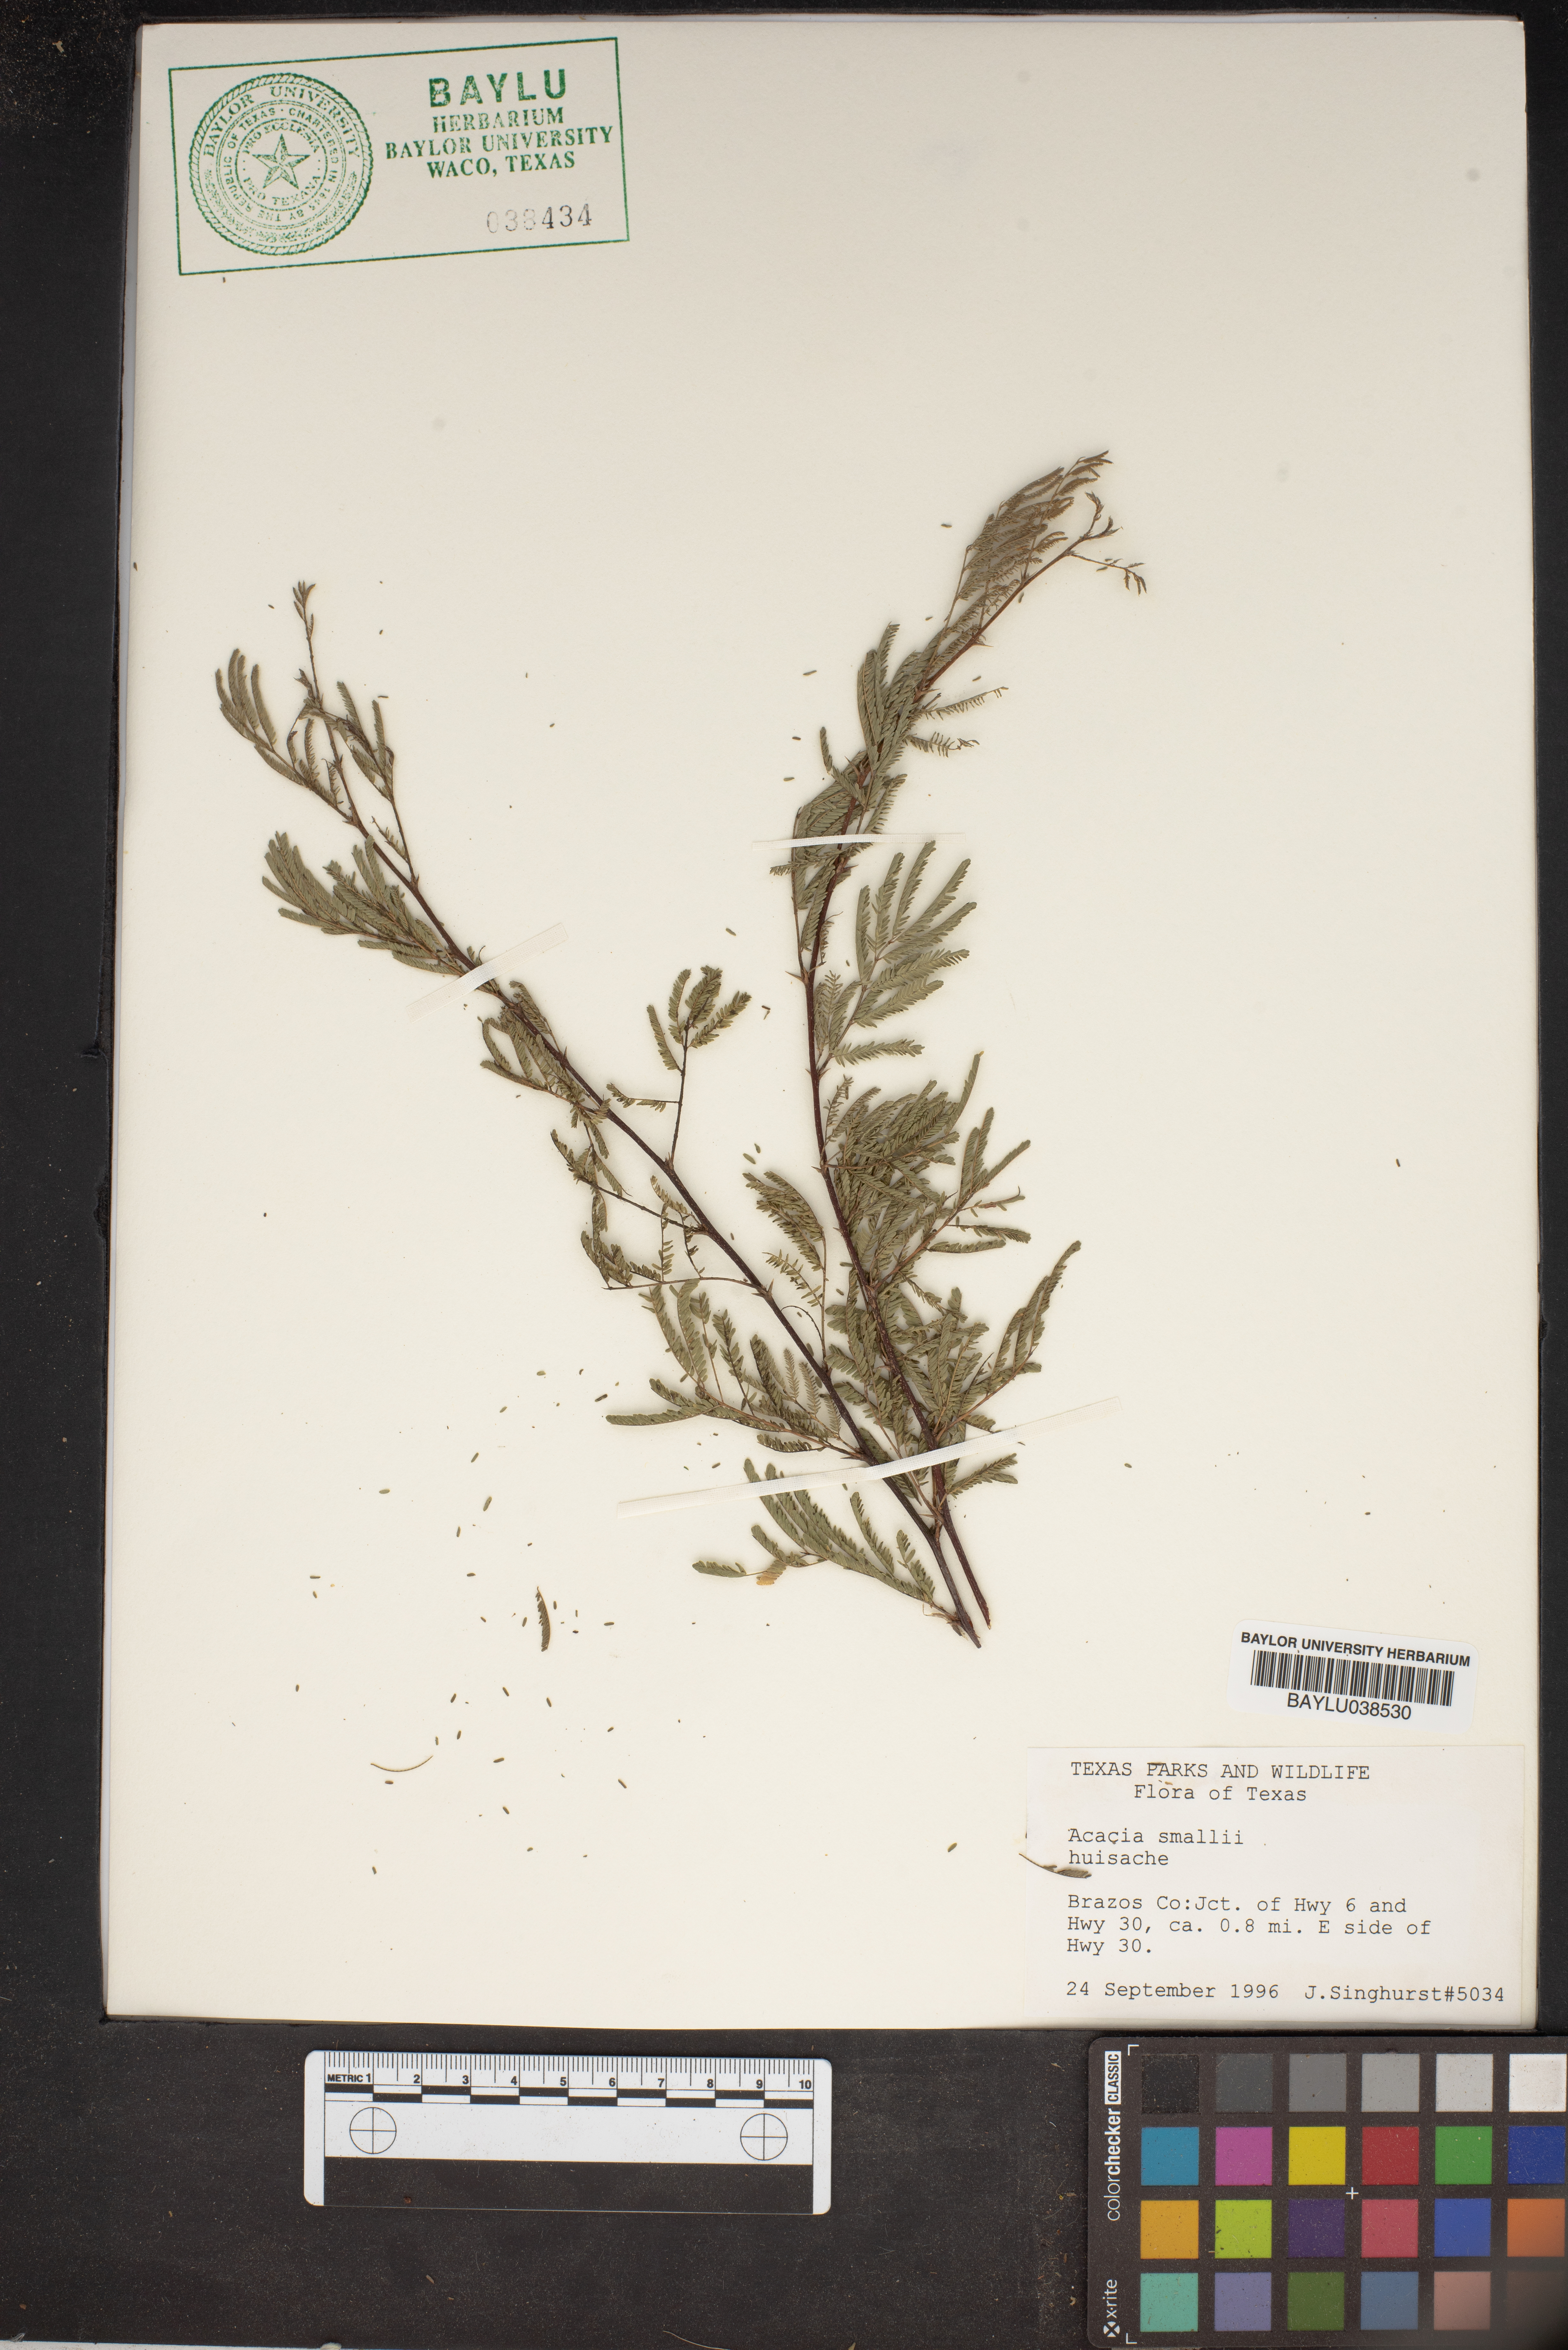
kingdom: Plantae
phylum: Tracheophyta
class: Magnoliopsida
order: Fabales
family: Fabaceae
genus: Vachellia
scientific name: Vachellia farnesiana
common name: Sweet acacia
